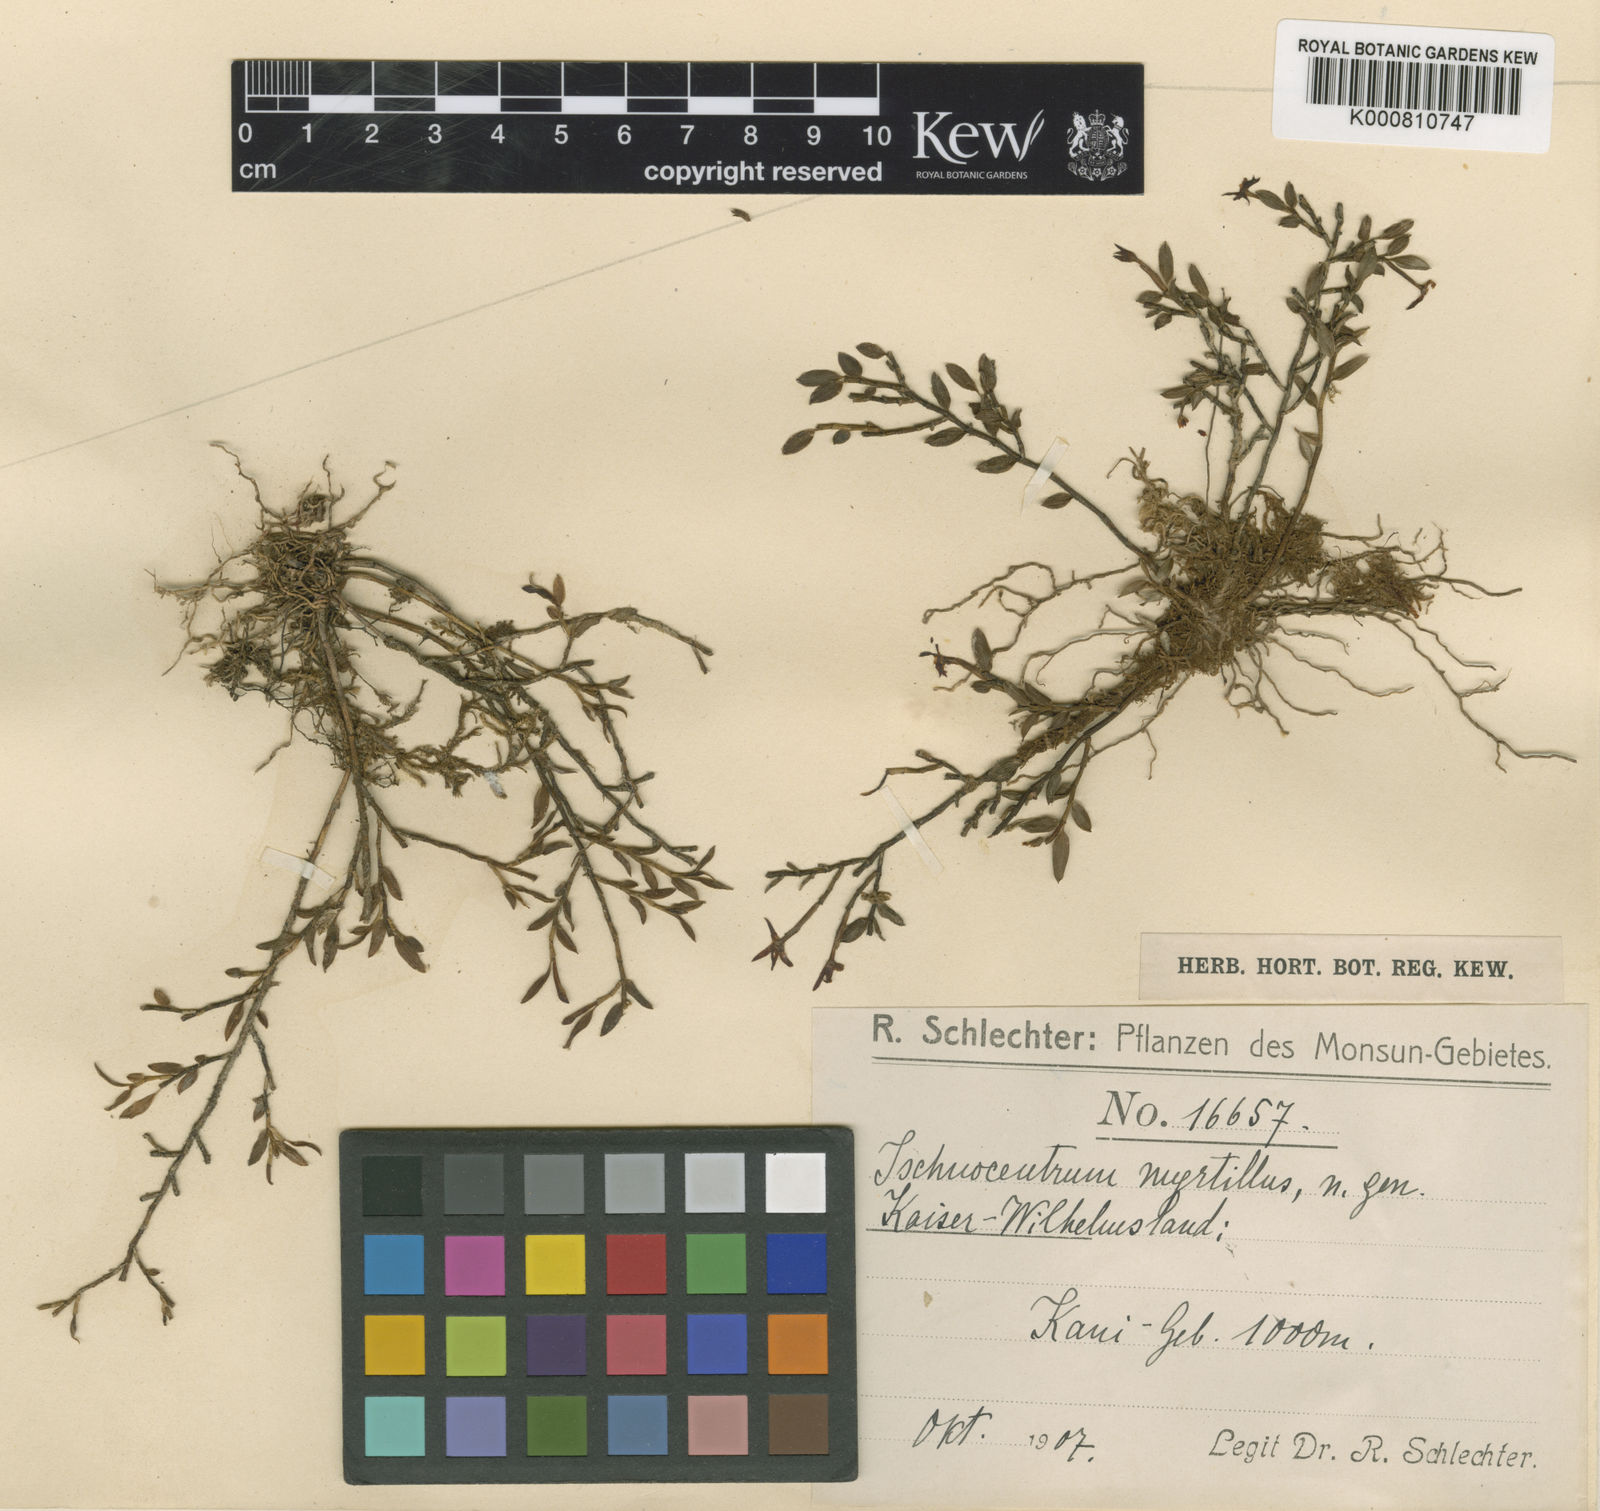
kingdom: Plantae
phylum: Tracheophyta
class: Liliopsida
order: Asparagales
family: Orchidaceae
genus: Glomera
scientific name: Glomera myrtillus
